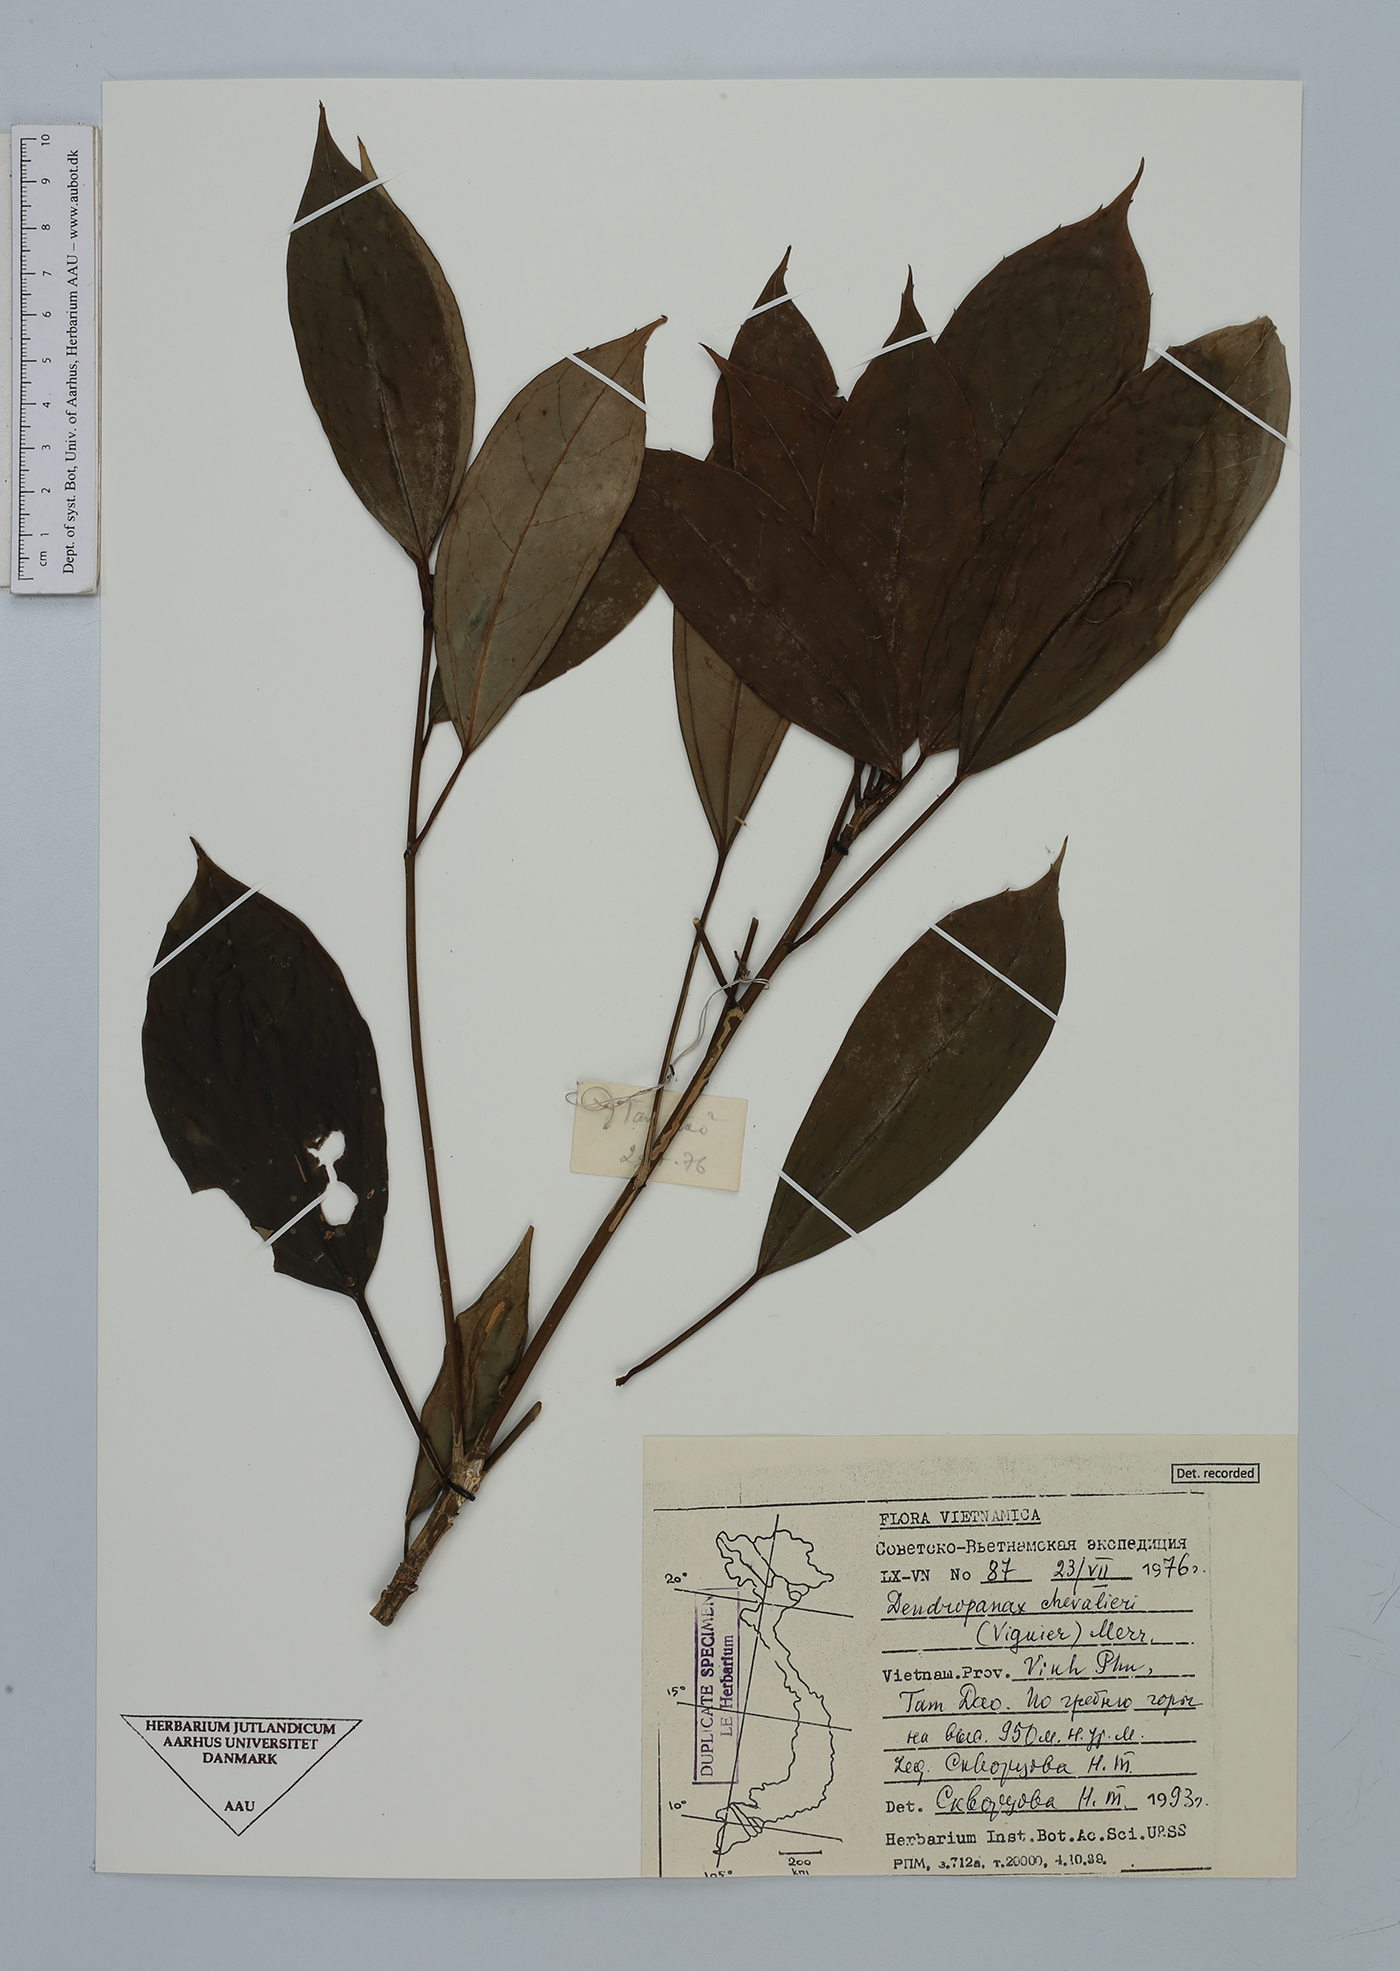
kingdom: Plantae
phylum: Tracheophyta
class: Magnoliopsida
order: Apiales
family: Araliaceae
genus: Dendropanax
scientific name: Dendropanax chevalieri
